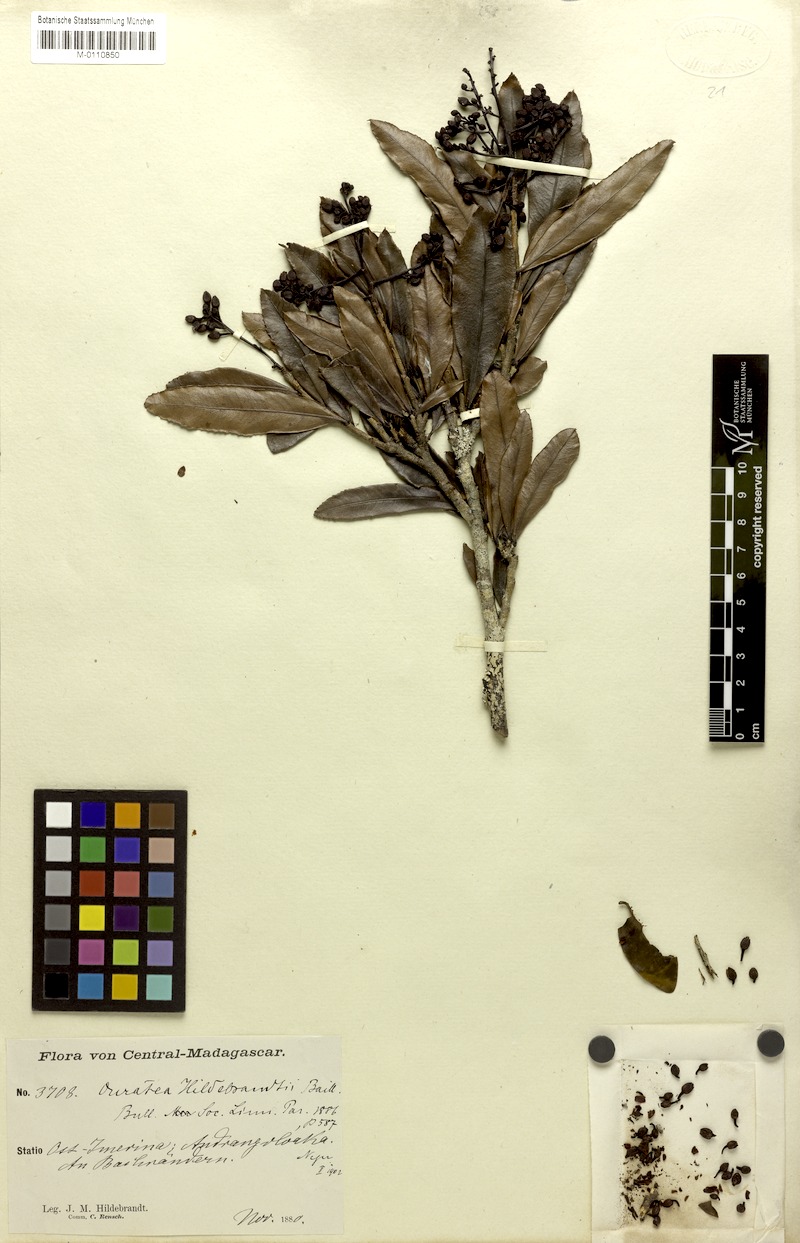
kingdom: Plantae
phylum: Tracheophyta
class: Magnoliopsida
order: Malpighiales
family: Ochnaceae
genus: Campylospermum
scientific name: Campylospermum deltoideum
